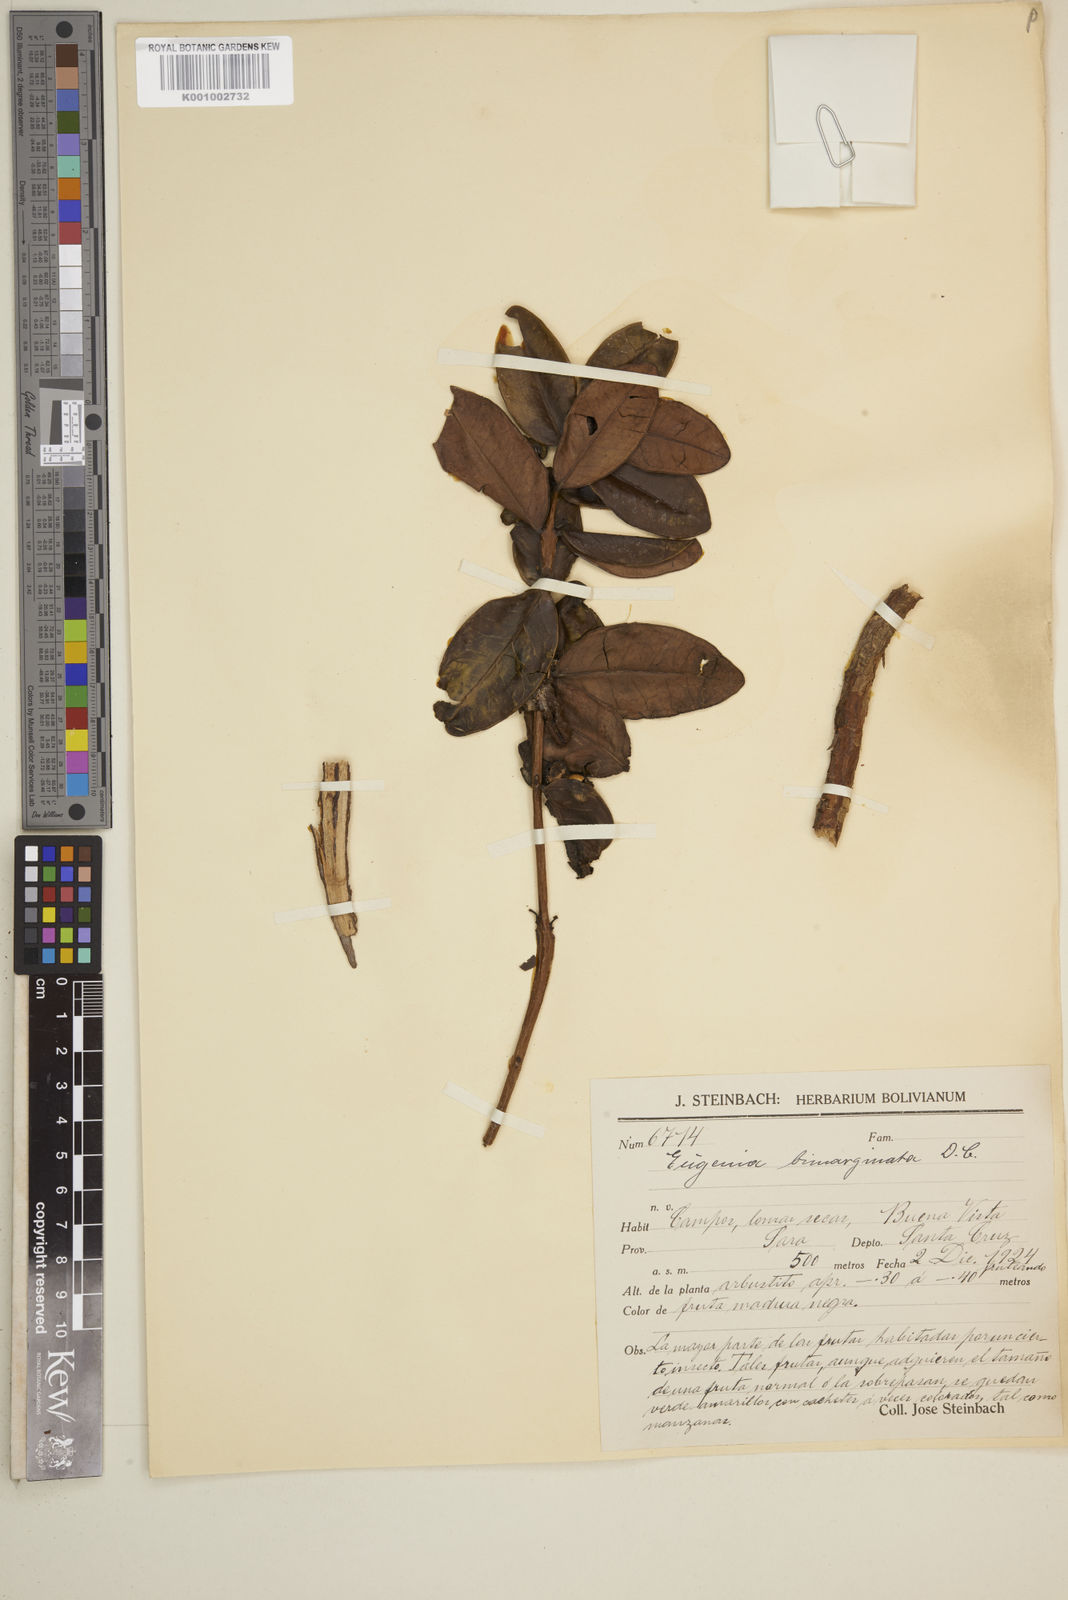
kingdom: Plantae
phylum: Tracheophyta
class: Magnoliopsida
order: Myrtales
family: Myrtaceae
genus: Eugenia
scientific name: Eugenia bimarginata
